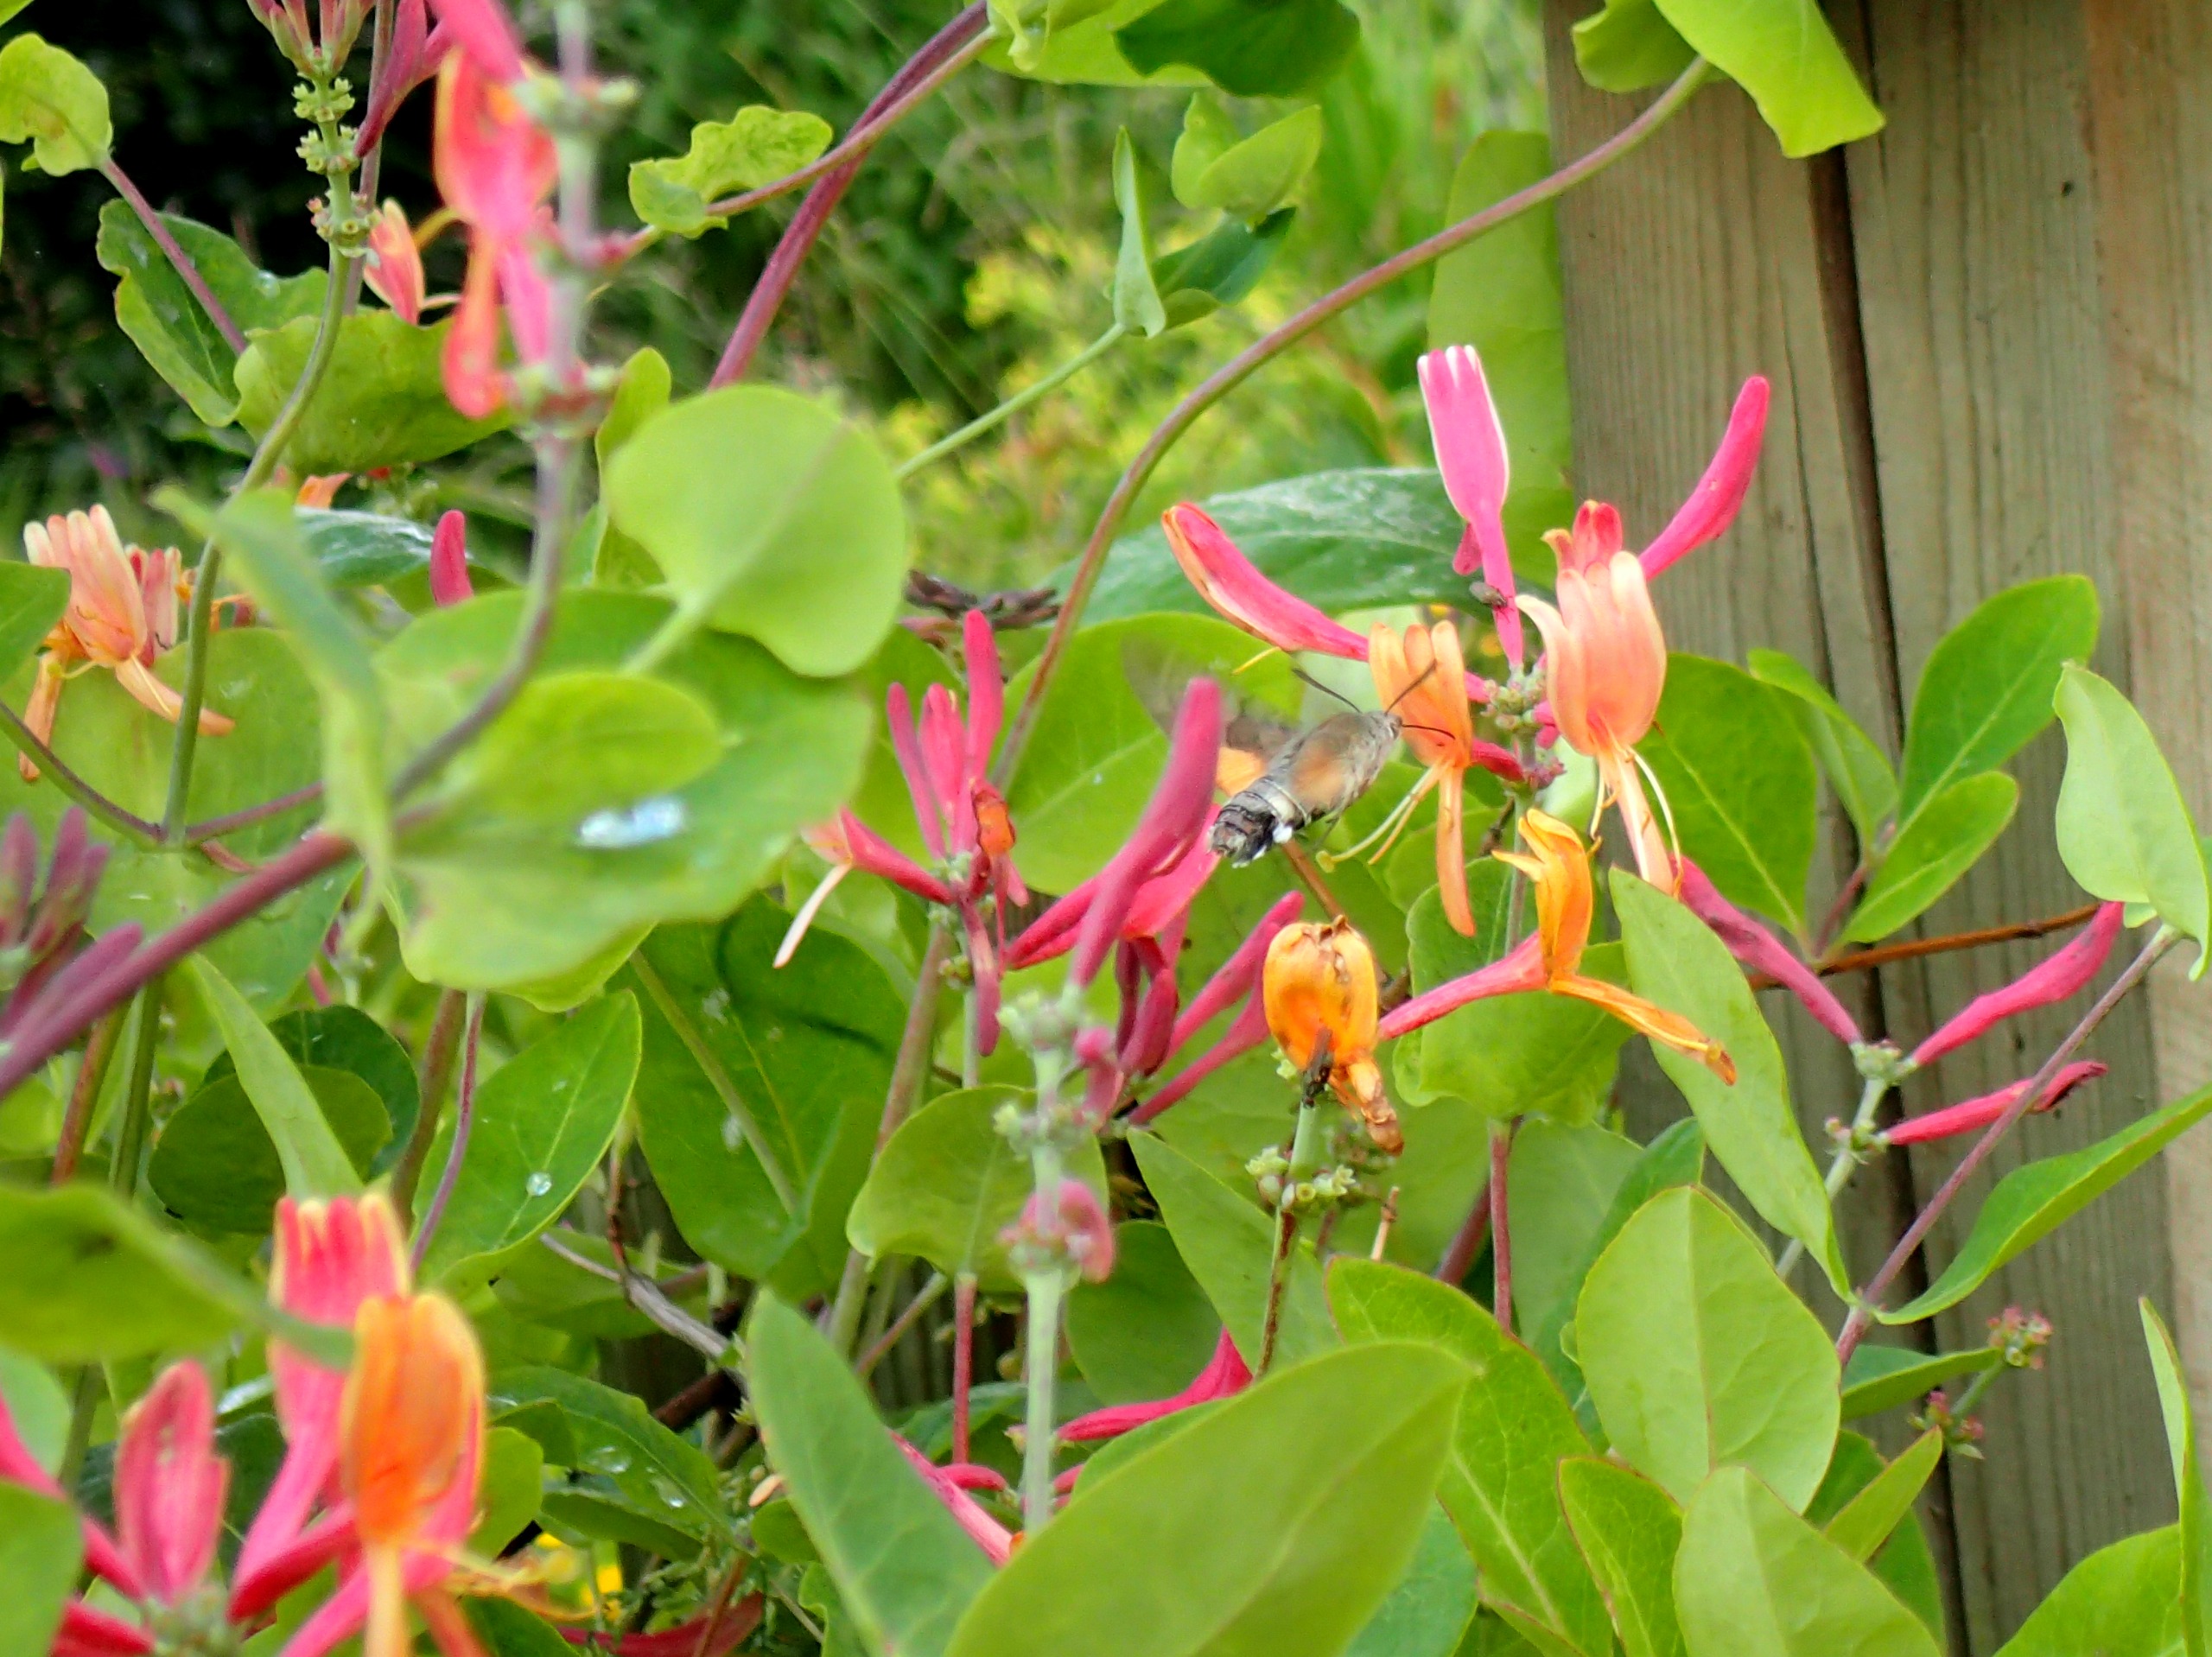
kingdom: Animalia
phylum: Arthropoda
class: Insecta
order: Lepidoptera
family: Sphingidae
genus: Macroglossum
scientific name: Macroglossum stellatarum
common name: Duehale
